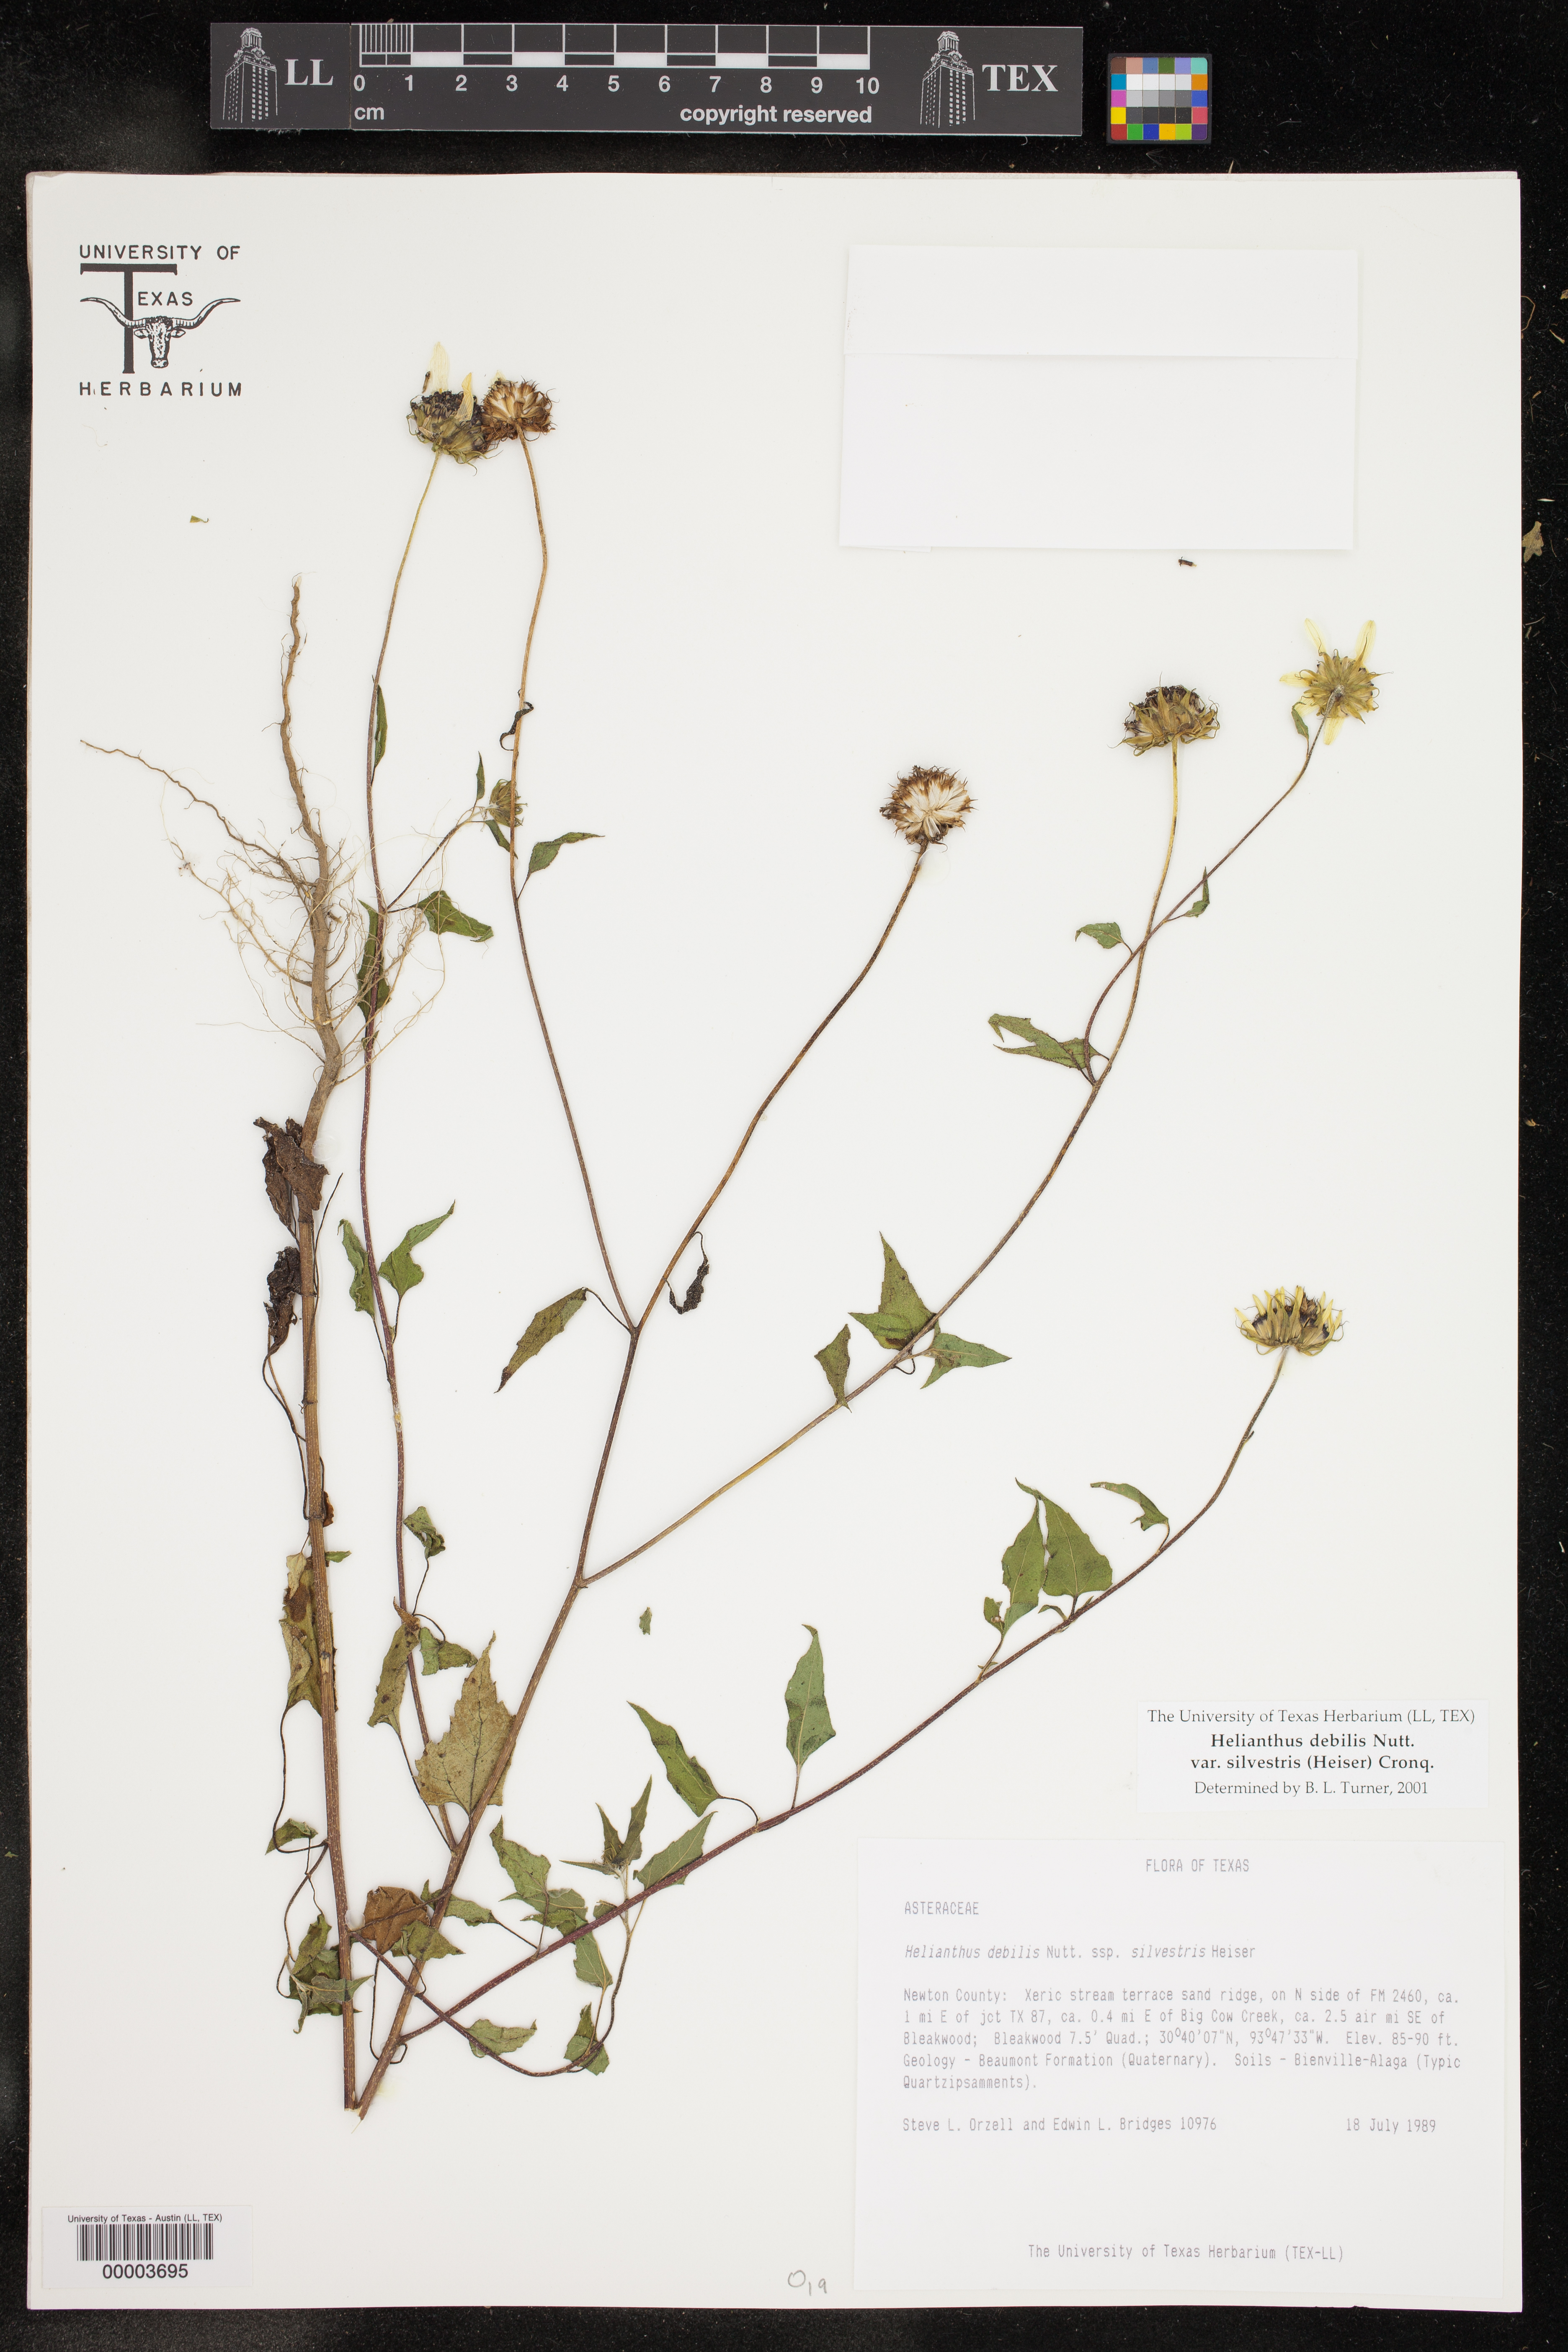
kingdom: Plantae
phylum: Tracheophyta
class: Magnoliopsida
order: Asterales
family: Asteraceae
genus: Helianthus
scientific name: Helianthus debilis
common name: Weak sunflower
